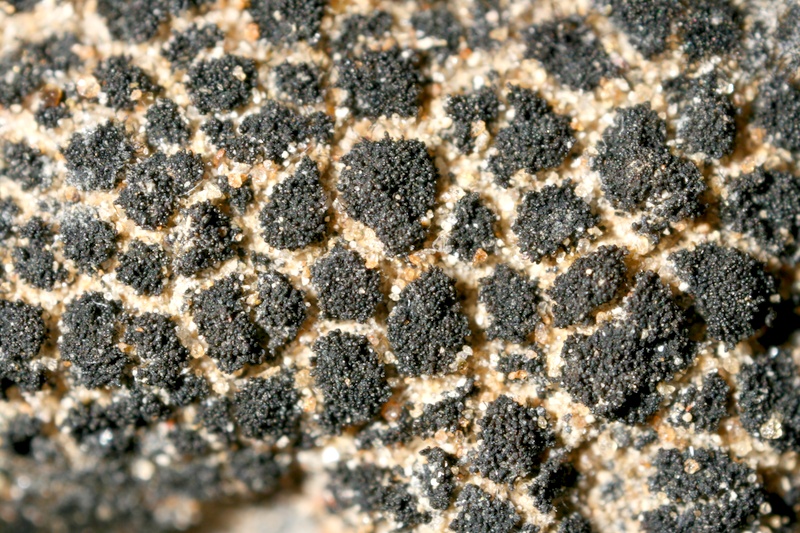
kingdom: Fungi
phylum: Ascomycota
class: Lichinomycetes
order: Lichinales
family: Lichinaceae
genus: Lichinella
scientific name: Lichinella stipatula
